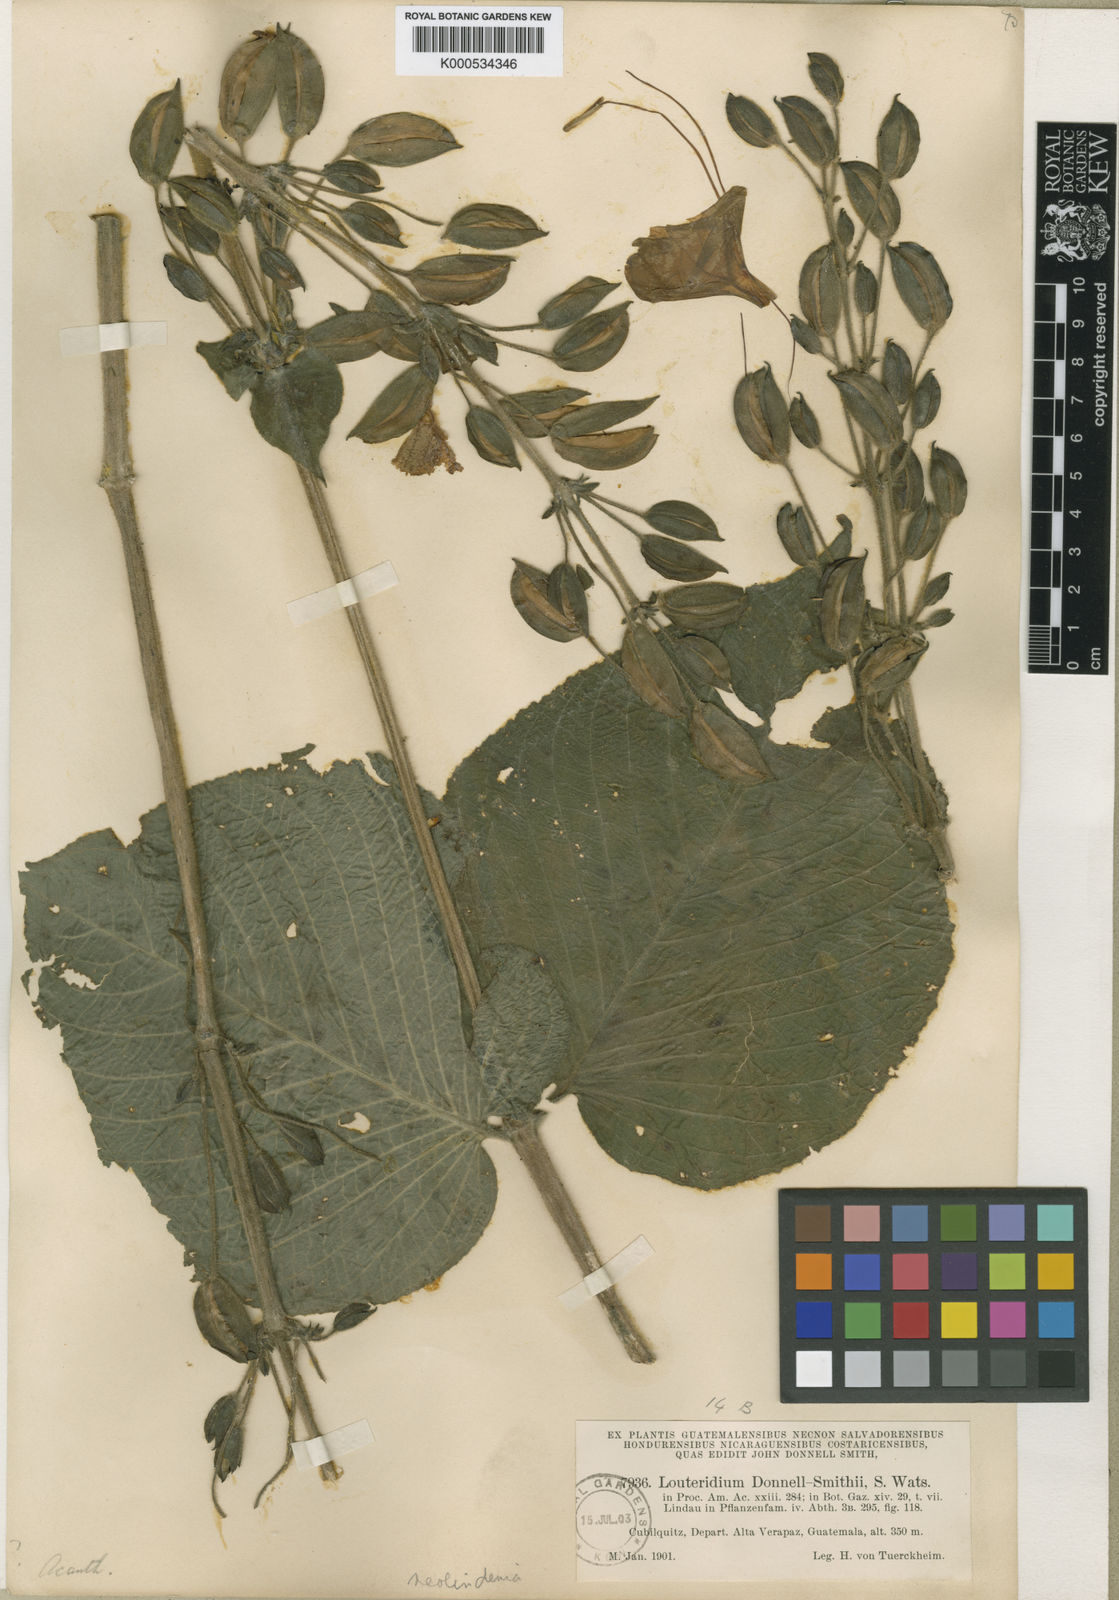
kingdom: Plantae
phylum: Tracheophyta
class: Magnoliopsida
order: Lamiales
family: Acanthaceae
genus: Louteridium
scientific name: Louteridium donnell-smithii
